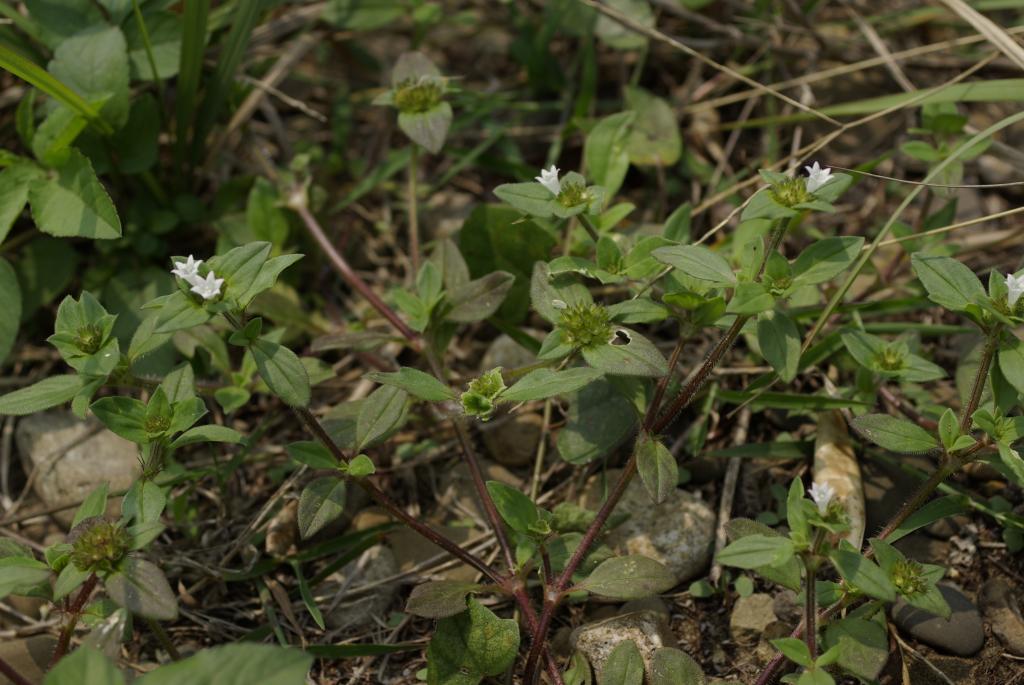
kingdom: Plantae
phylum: Tracheophyta
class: Magnoliopsida
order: Gentianales
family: Rubiaceae
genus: Richardia
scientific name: Richardia scabra
